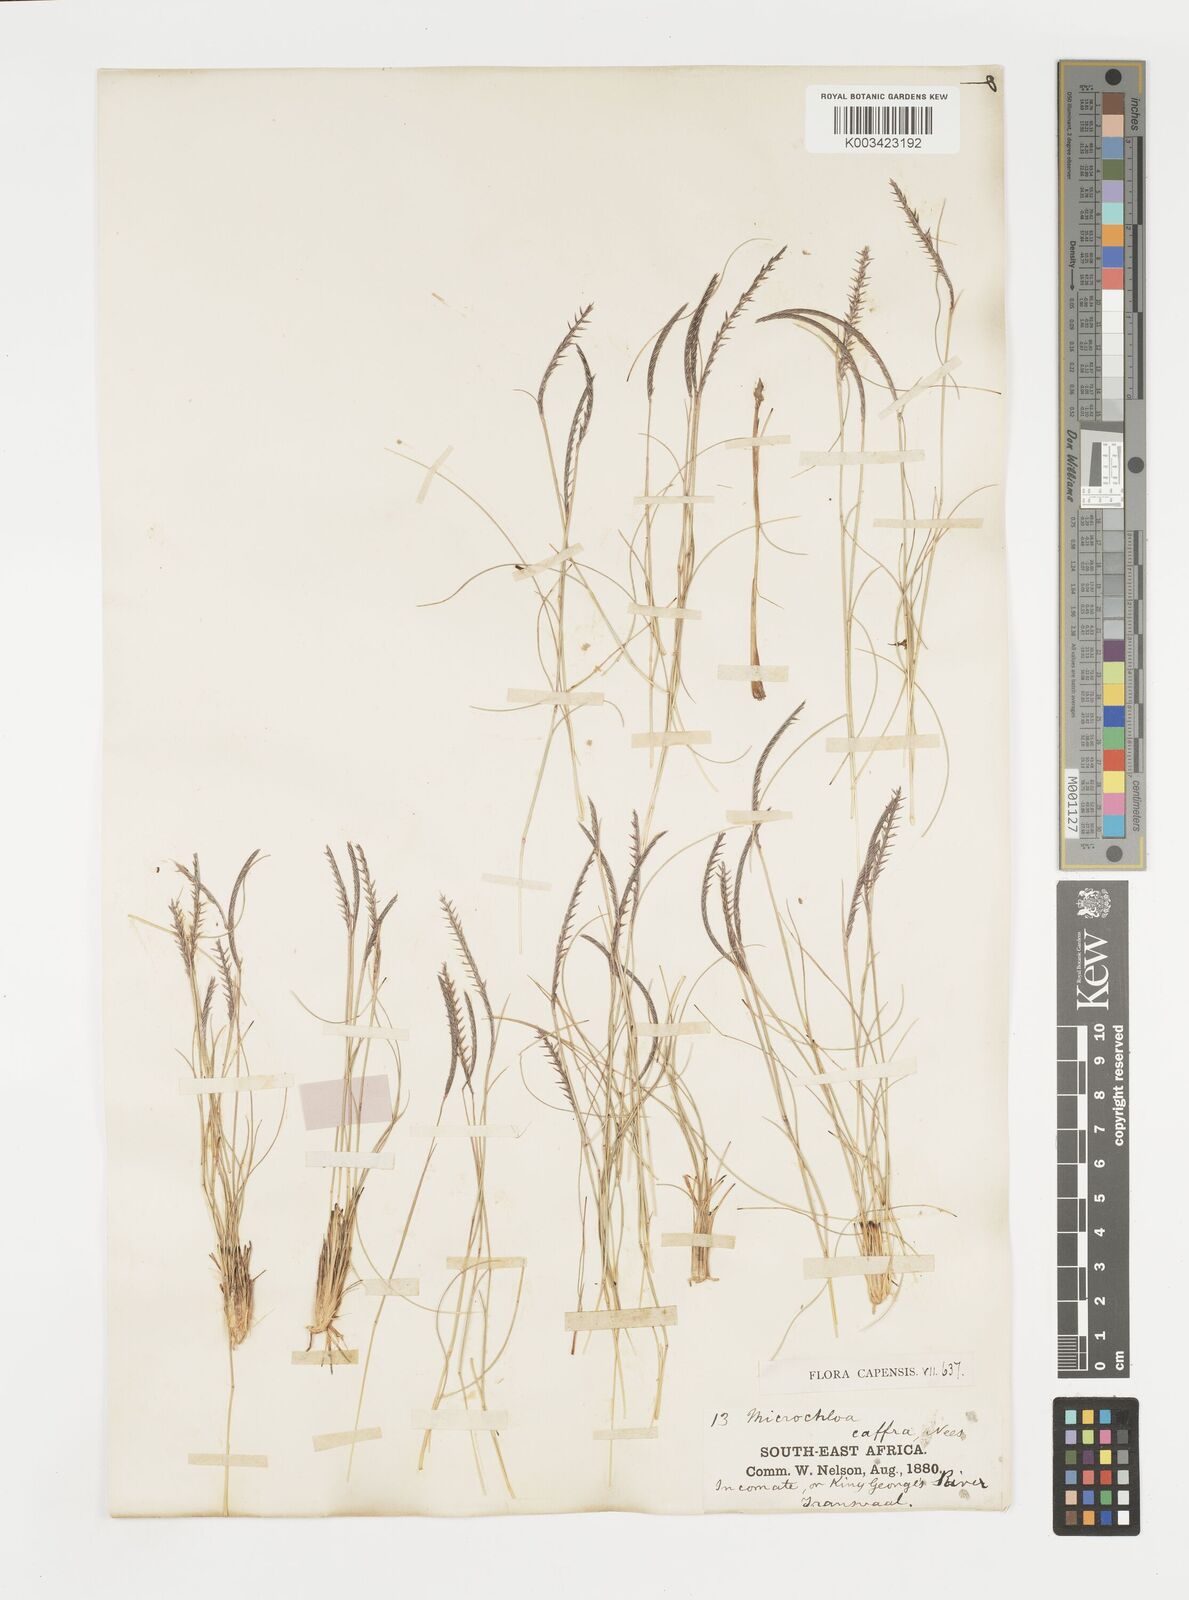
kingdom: Plantae
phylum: Tracheophyta
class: Liliopsida
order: Poales
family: Poaceae
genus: Microchloa
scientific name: Microchloa caffra
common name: Pincushion grass
